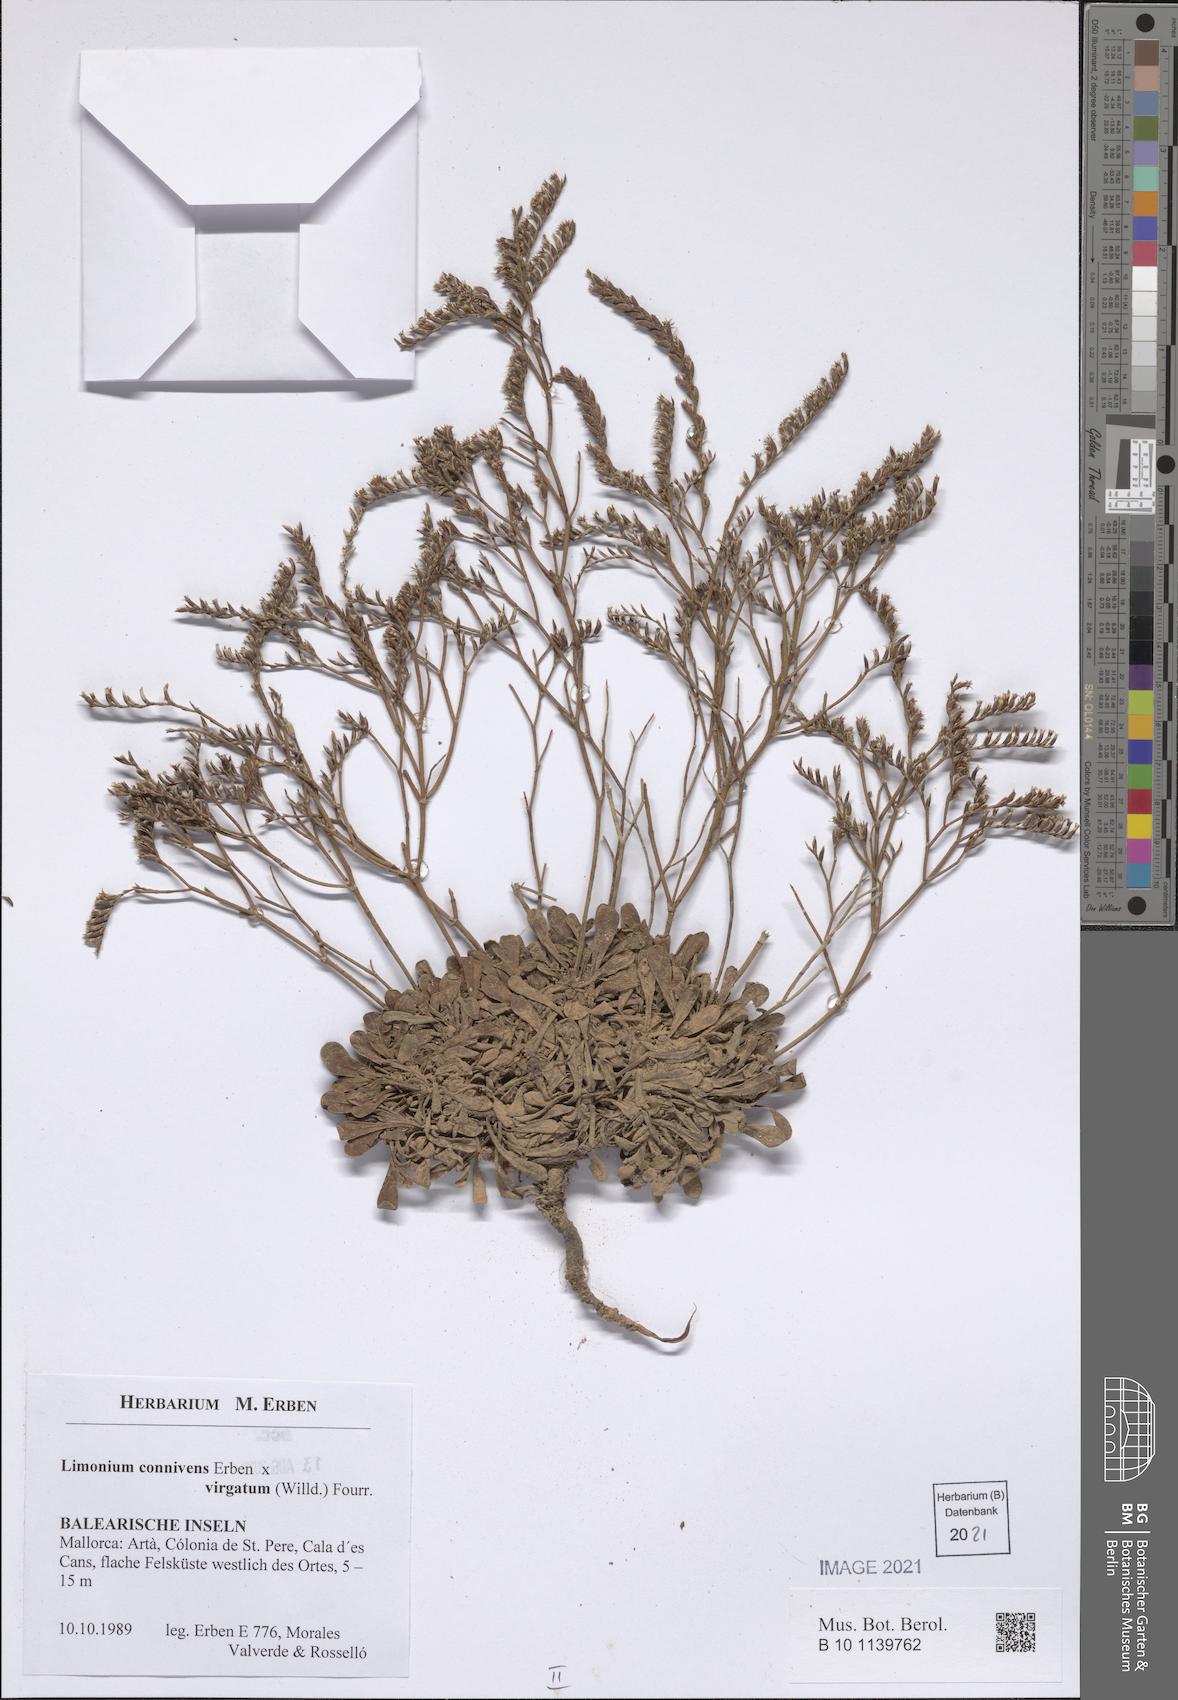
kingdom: Plantae
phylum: Tracheophyta
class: Magnoliopsida
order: Caryophyllales
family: Plumbaginaceae
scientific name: Plumbaginaceae
